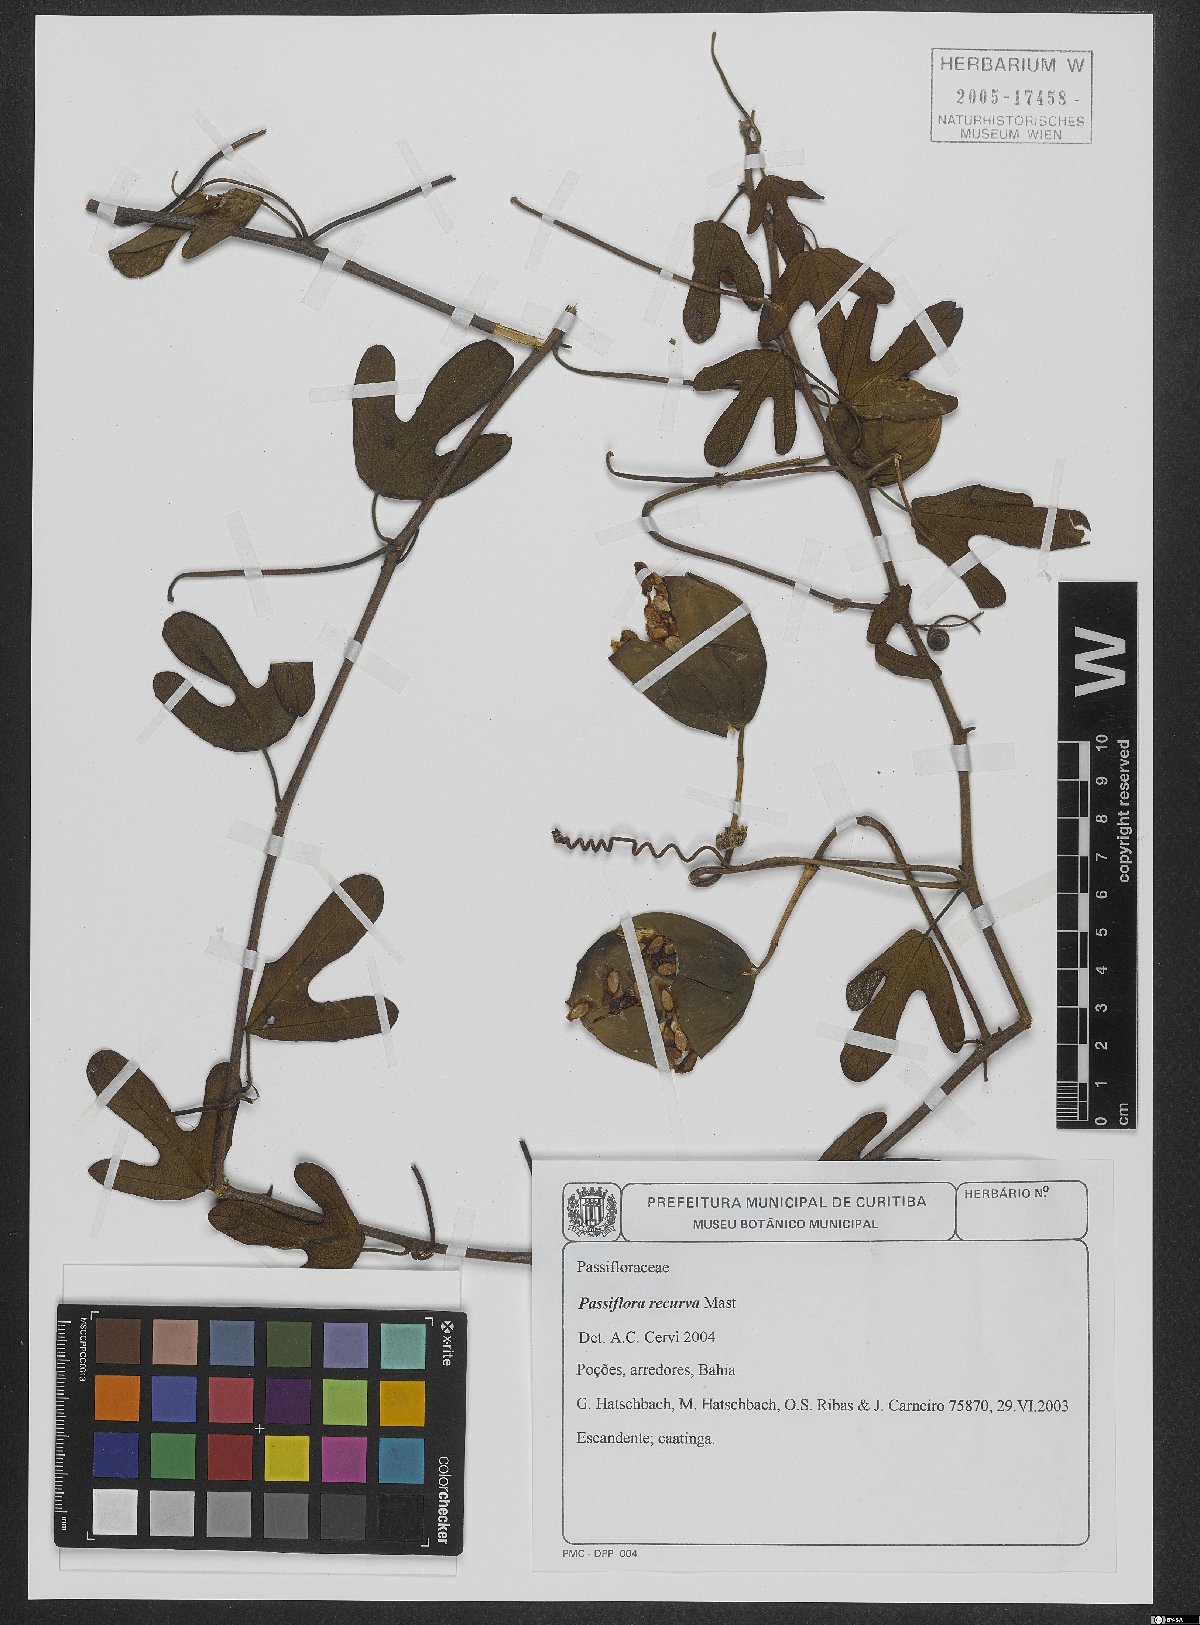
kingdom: Plantae
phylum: Tracheophyta
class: Magnoliopsida
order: Malpighiales
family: Passifloraceae
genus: Passiflora
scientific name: Passiflora recurva
